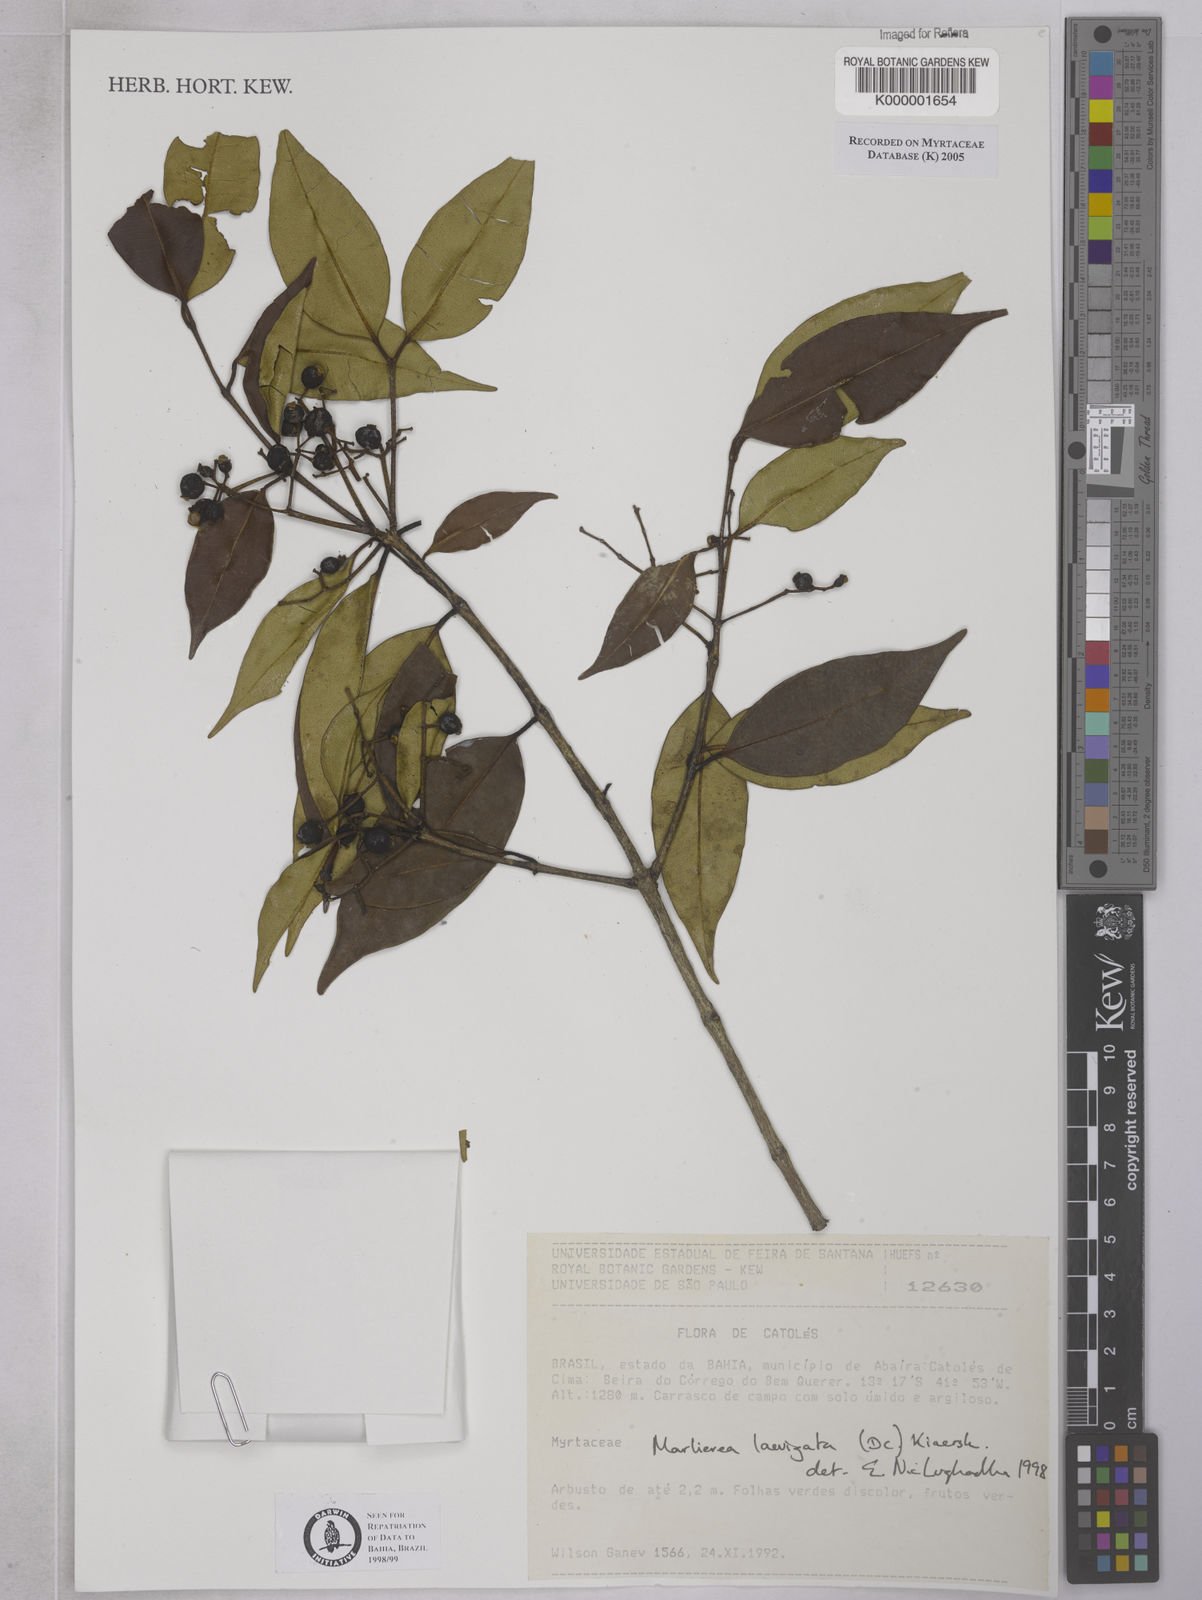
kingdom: Plantae
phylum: Tracheophyta
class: Magnoliopsida
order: Myrtales
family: Myrtaceae
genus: Myrcia
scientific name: Myrcia multipunctata
